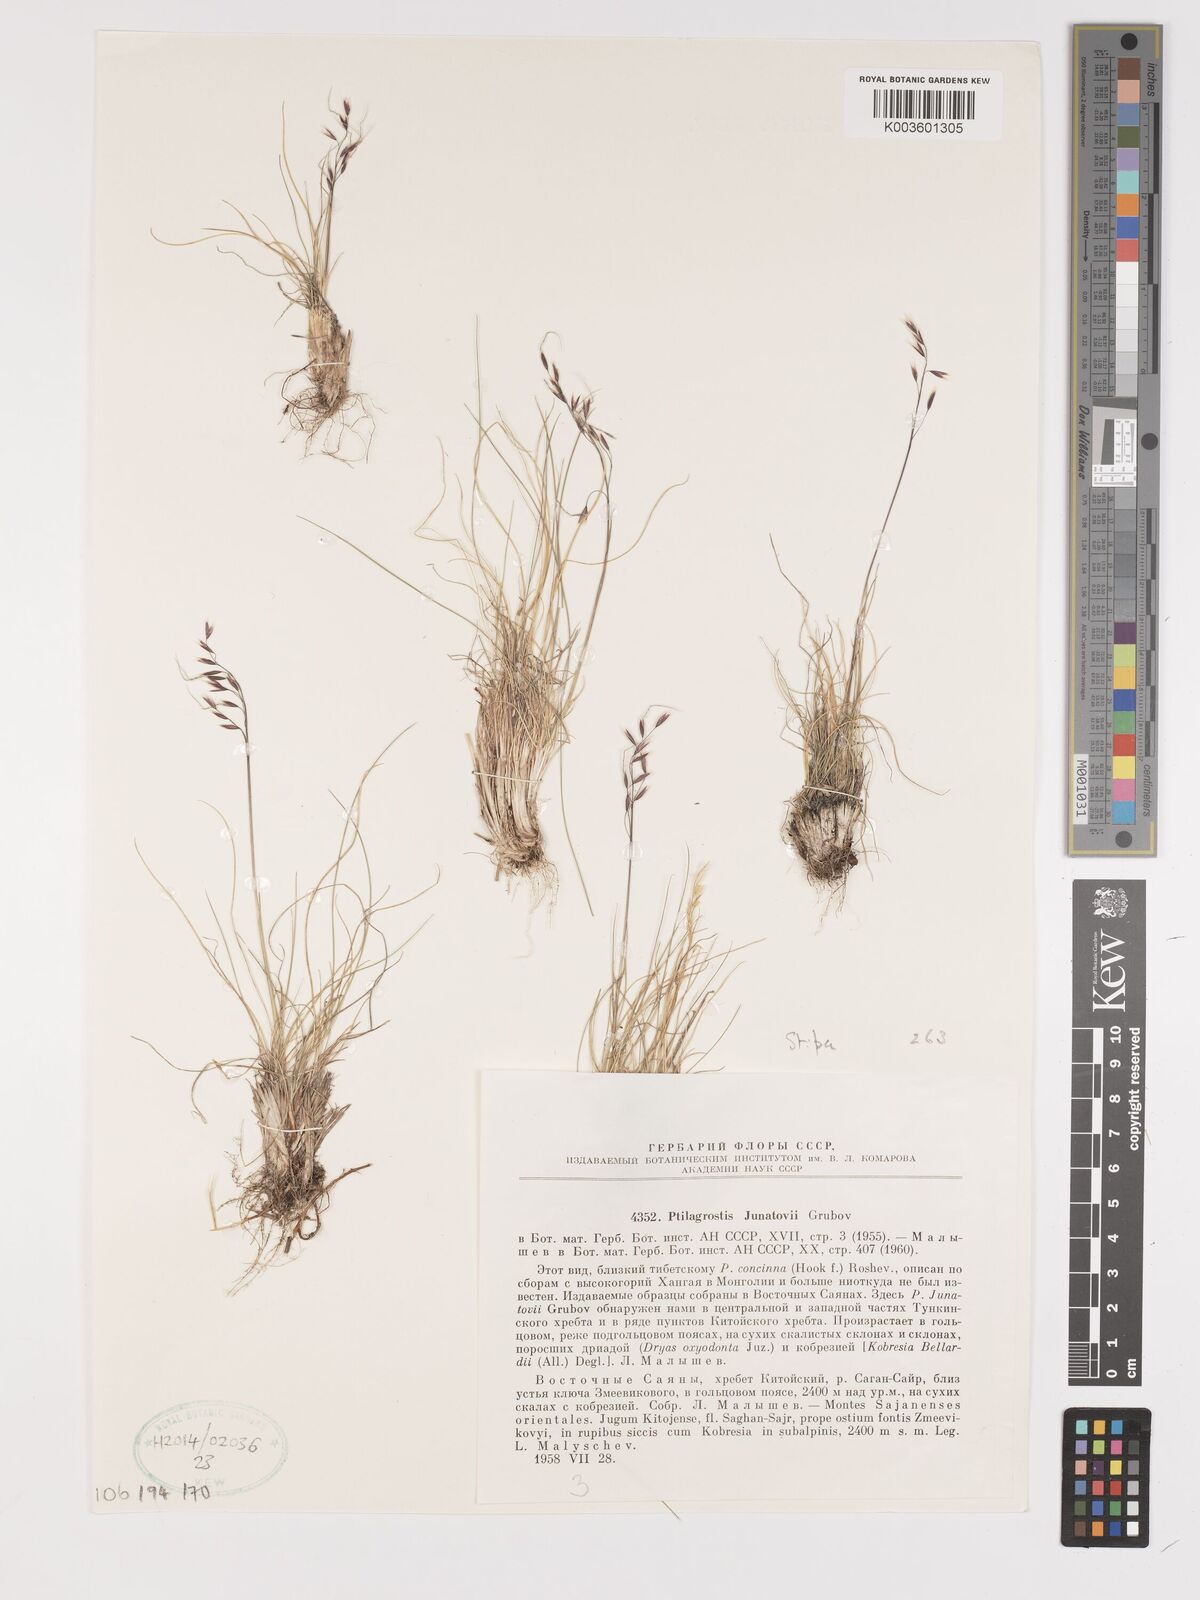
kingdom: Plantae
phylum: Tracheophyta
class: Liliopsida
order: Poales
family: Poaceae
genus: Stipa
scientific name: Stipa
